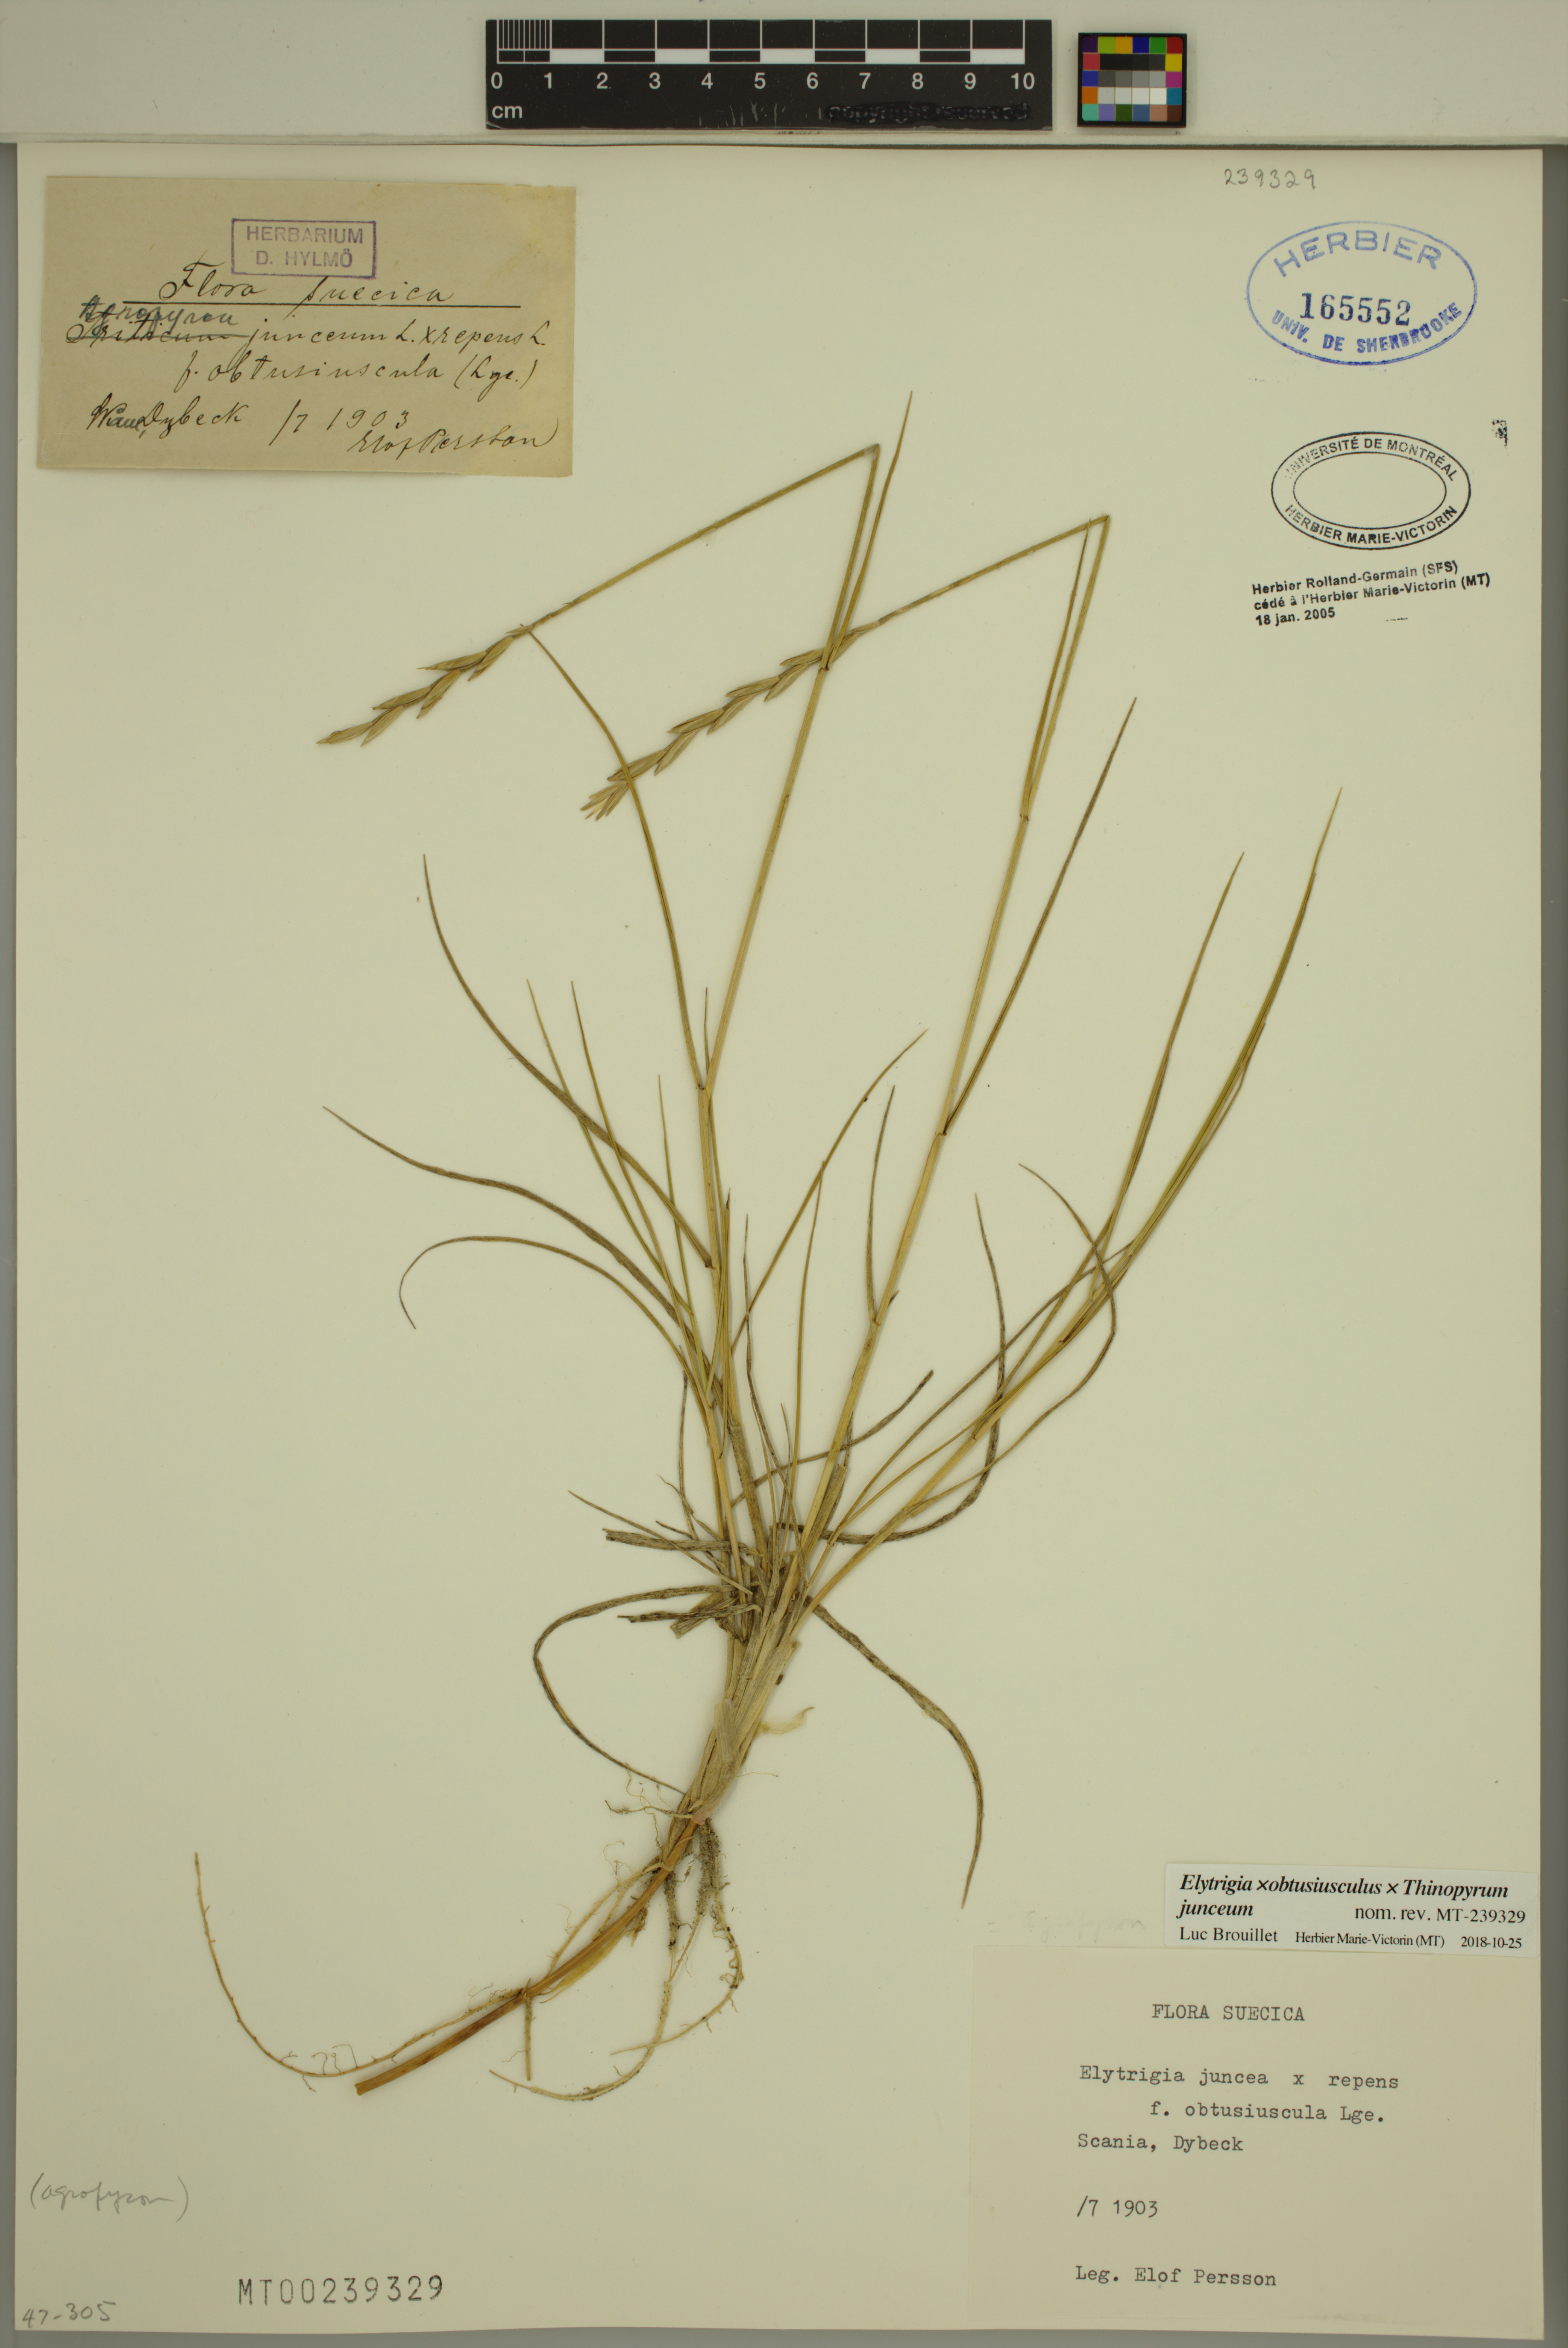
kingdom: Plantae
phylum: Tracheophyta
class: Liliopsida
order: Poales
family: Poaceae
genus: Thinoelymus
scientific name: Thinoelymus obtusiusculus
